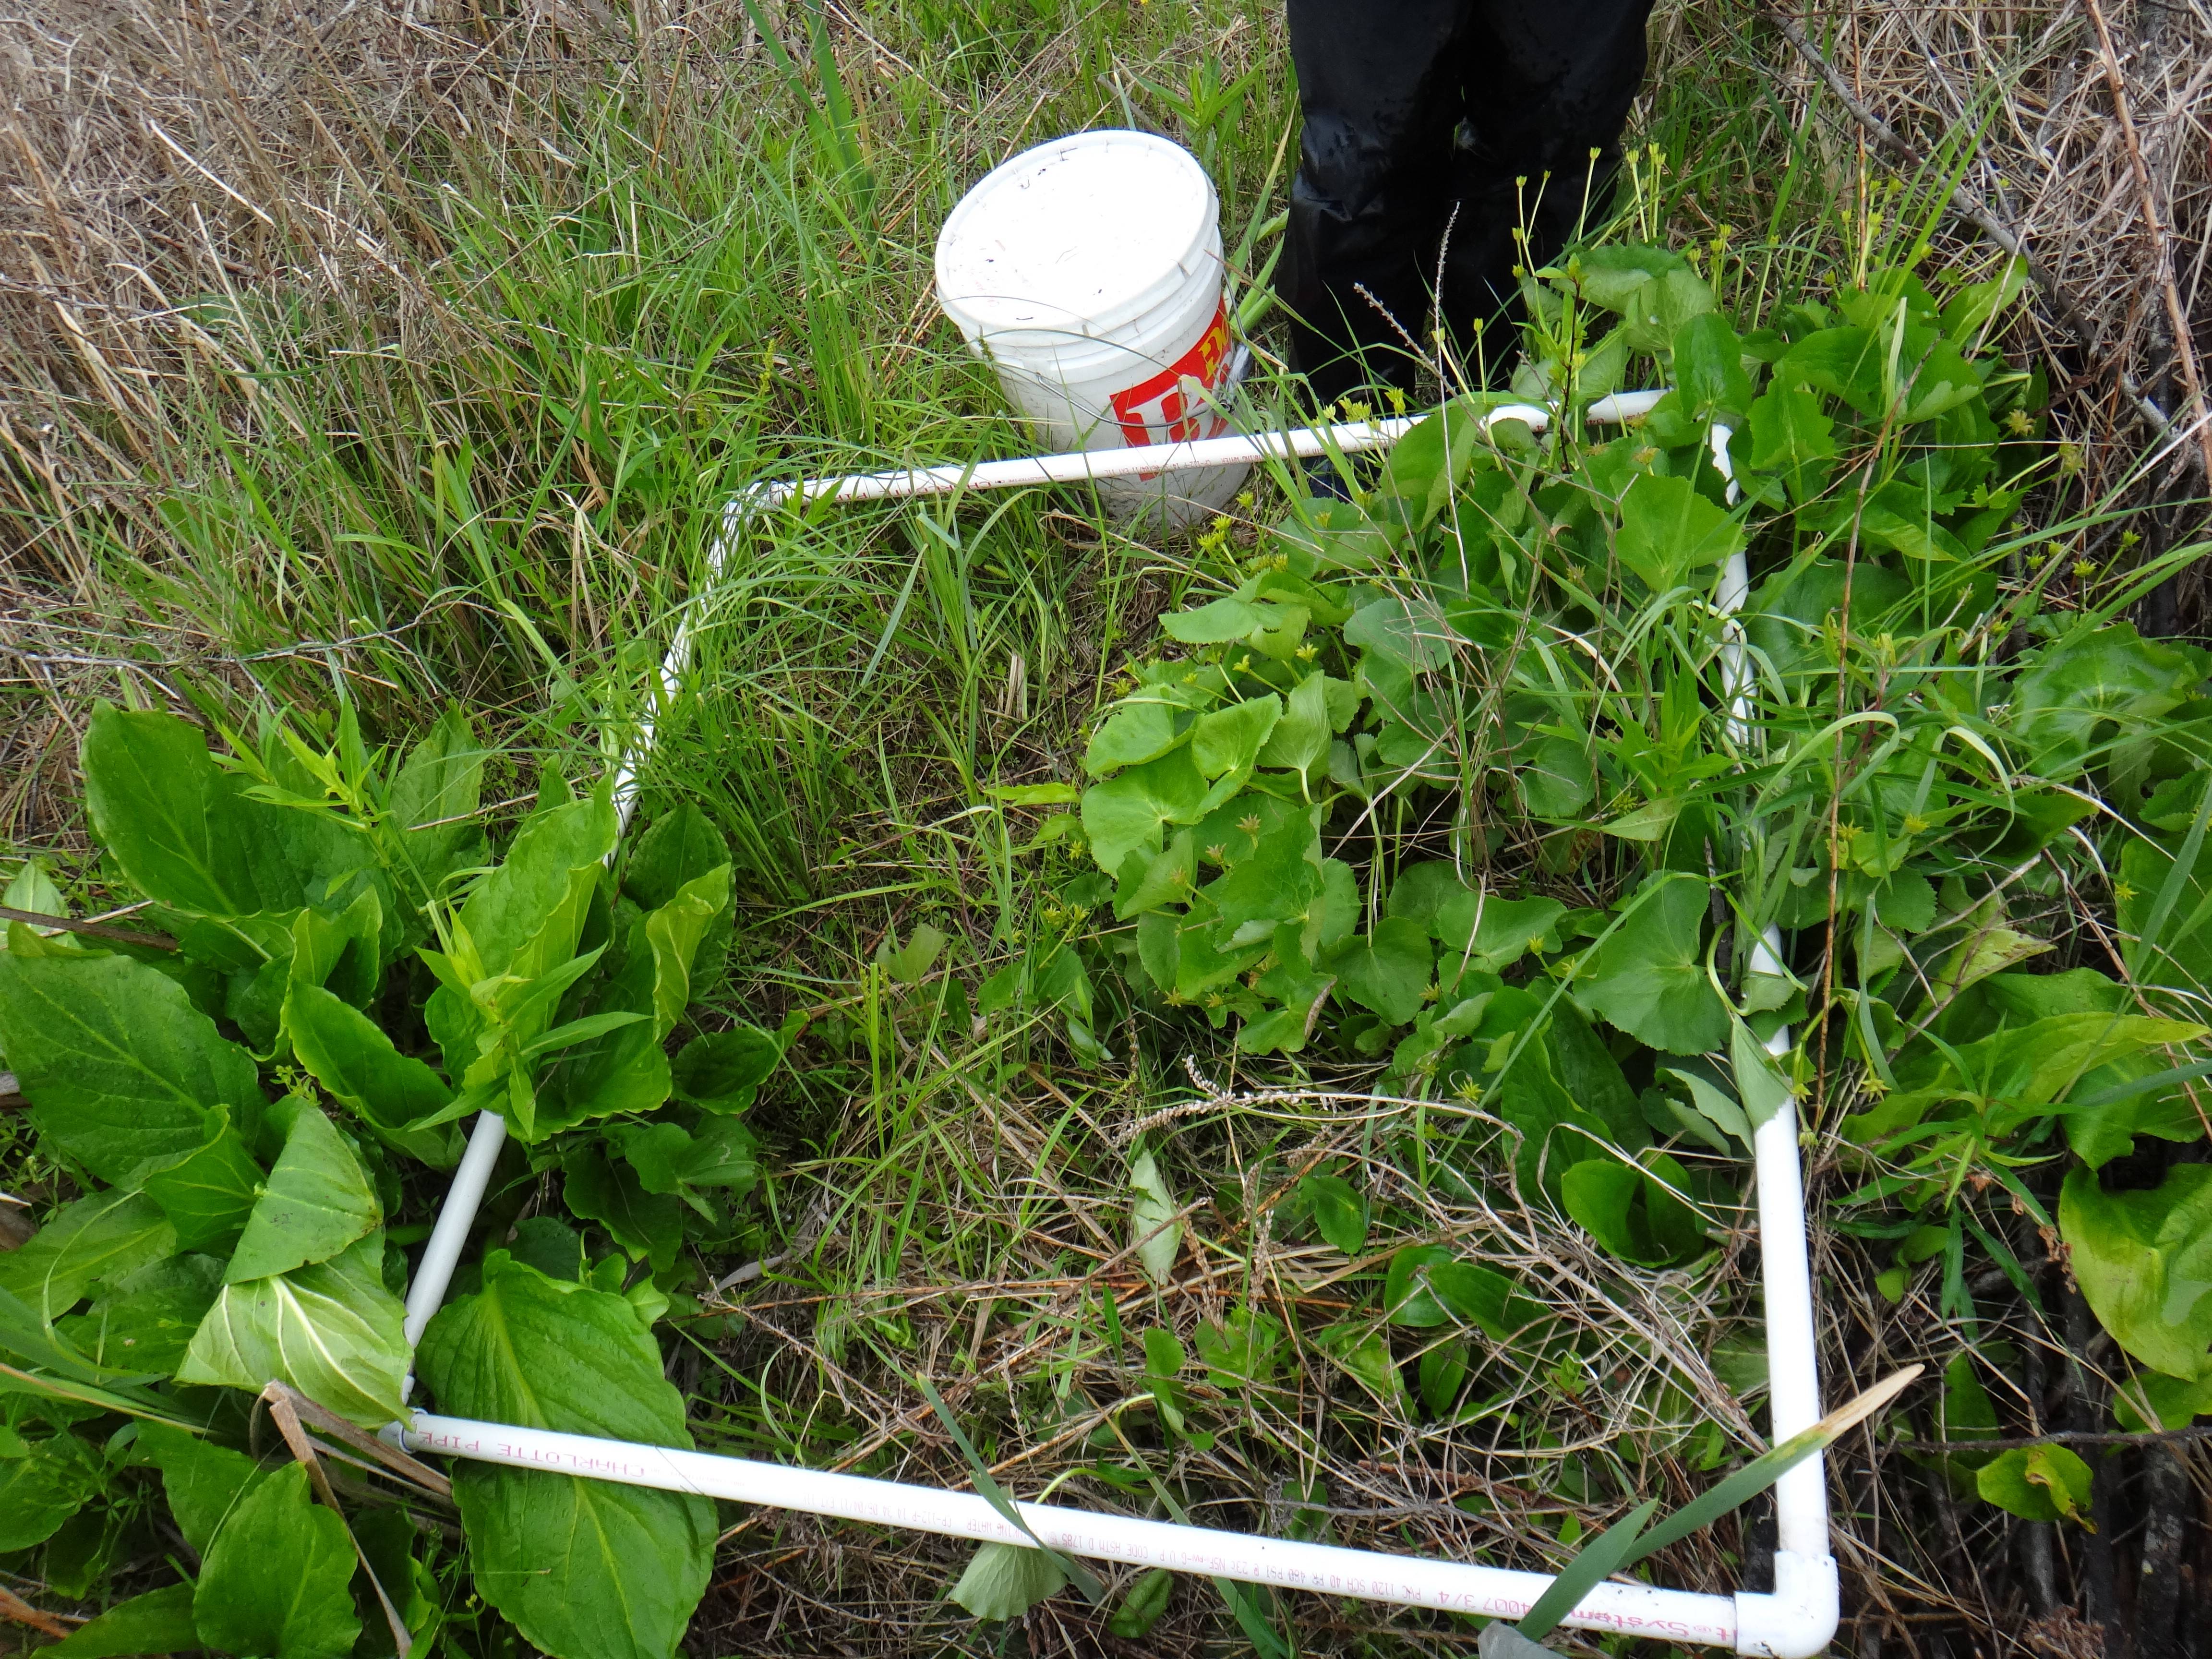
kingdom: Plantae
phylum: Tracheophyta
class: Magnoliopsida
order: Asterales
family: Asteraceae
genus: Symphyotrichum
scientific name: Symphyotrichum firmum
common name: Shining aster
